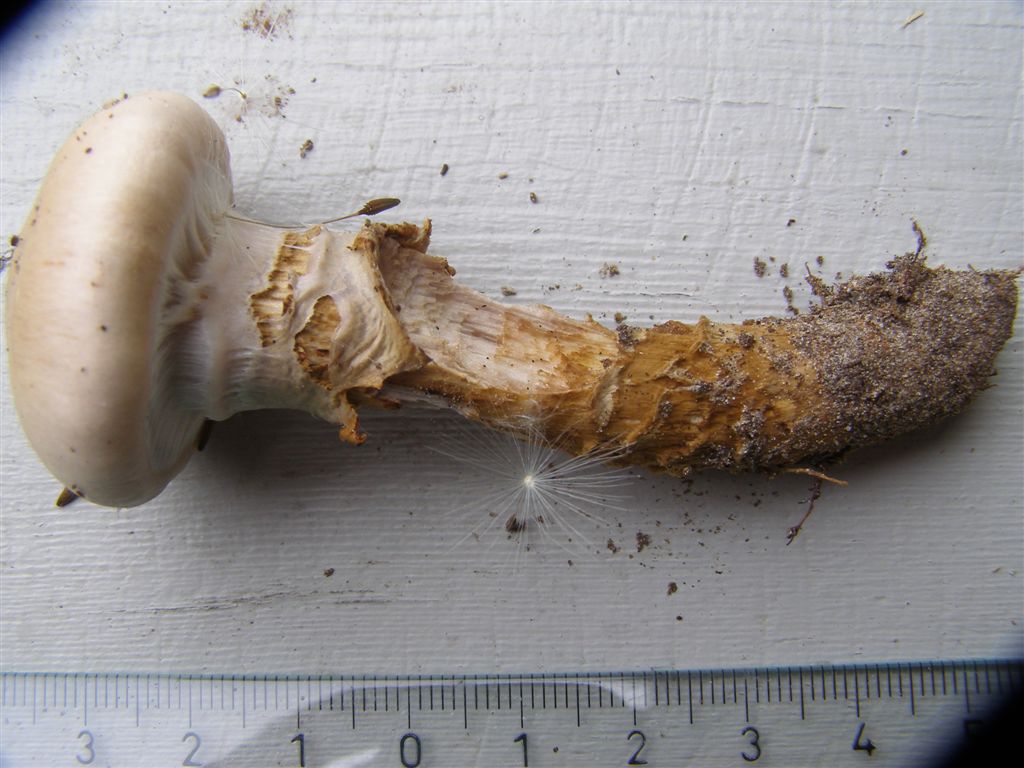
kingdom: Fungi
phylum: Basidiomycota
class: Agaricomycetes
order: Agaricales
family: Cortinariaceae
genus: Cortinarius
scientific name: Cortinarius trivialis
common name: brunslimet slørhat
